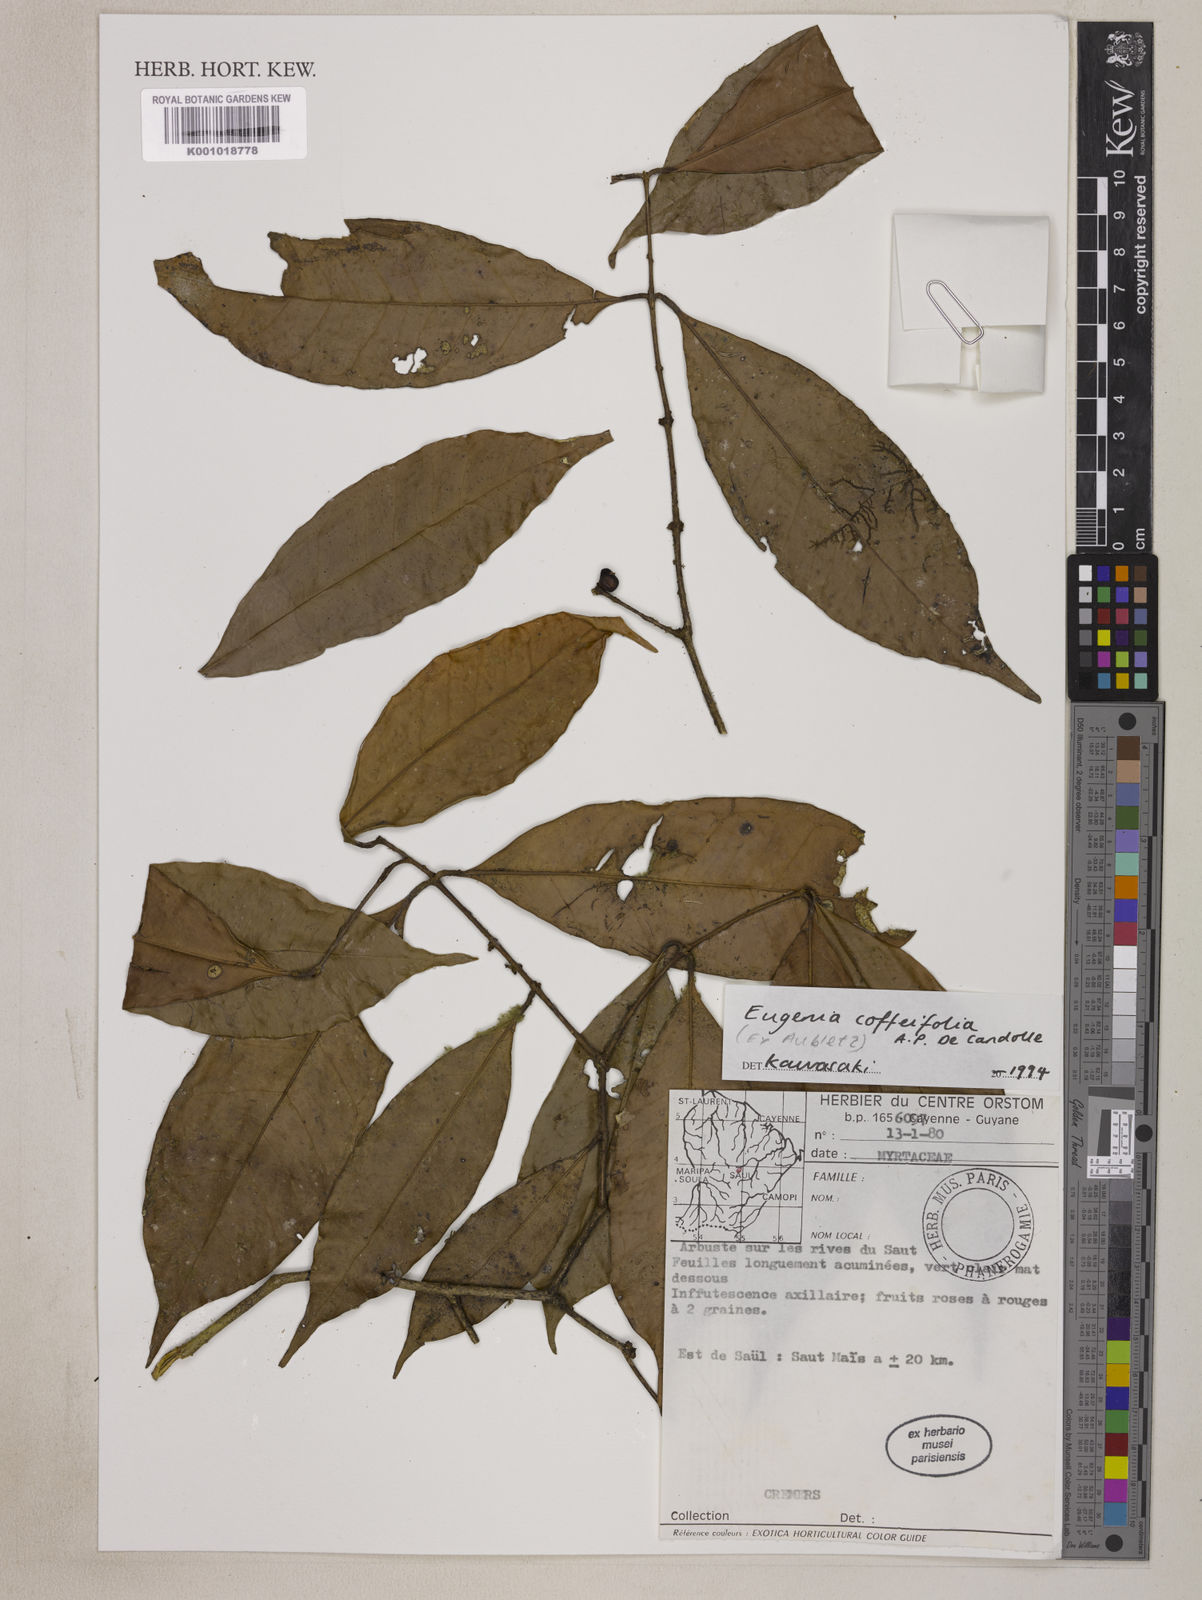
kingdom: Plantae
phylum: Tracheophyta
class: Magnoliopsida
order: Myrtales
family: Myrtaceae
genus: Eugenia
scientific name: Eugenia coffeifolia
